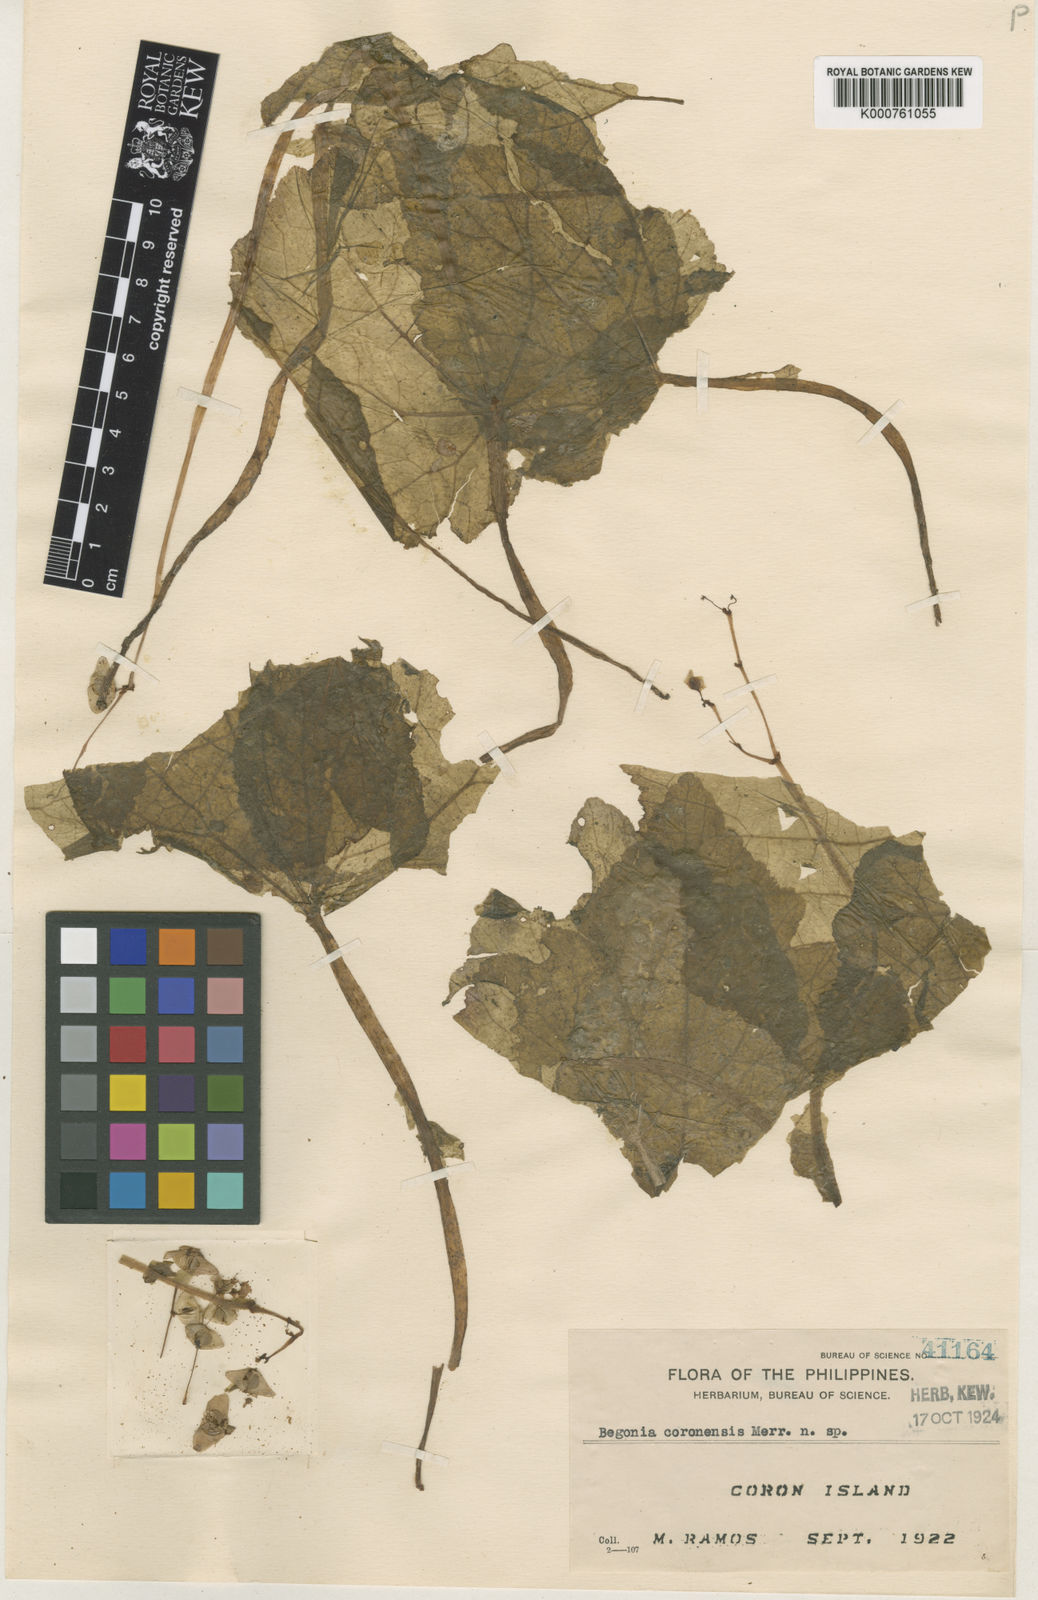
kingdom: Plantae
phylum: Tracheophyta
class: Magnoliopsida
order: Cucurbitales
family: Begoniaceae
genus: Begonia
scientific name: Begonia coronensis
